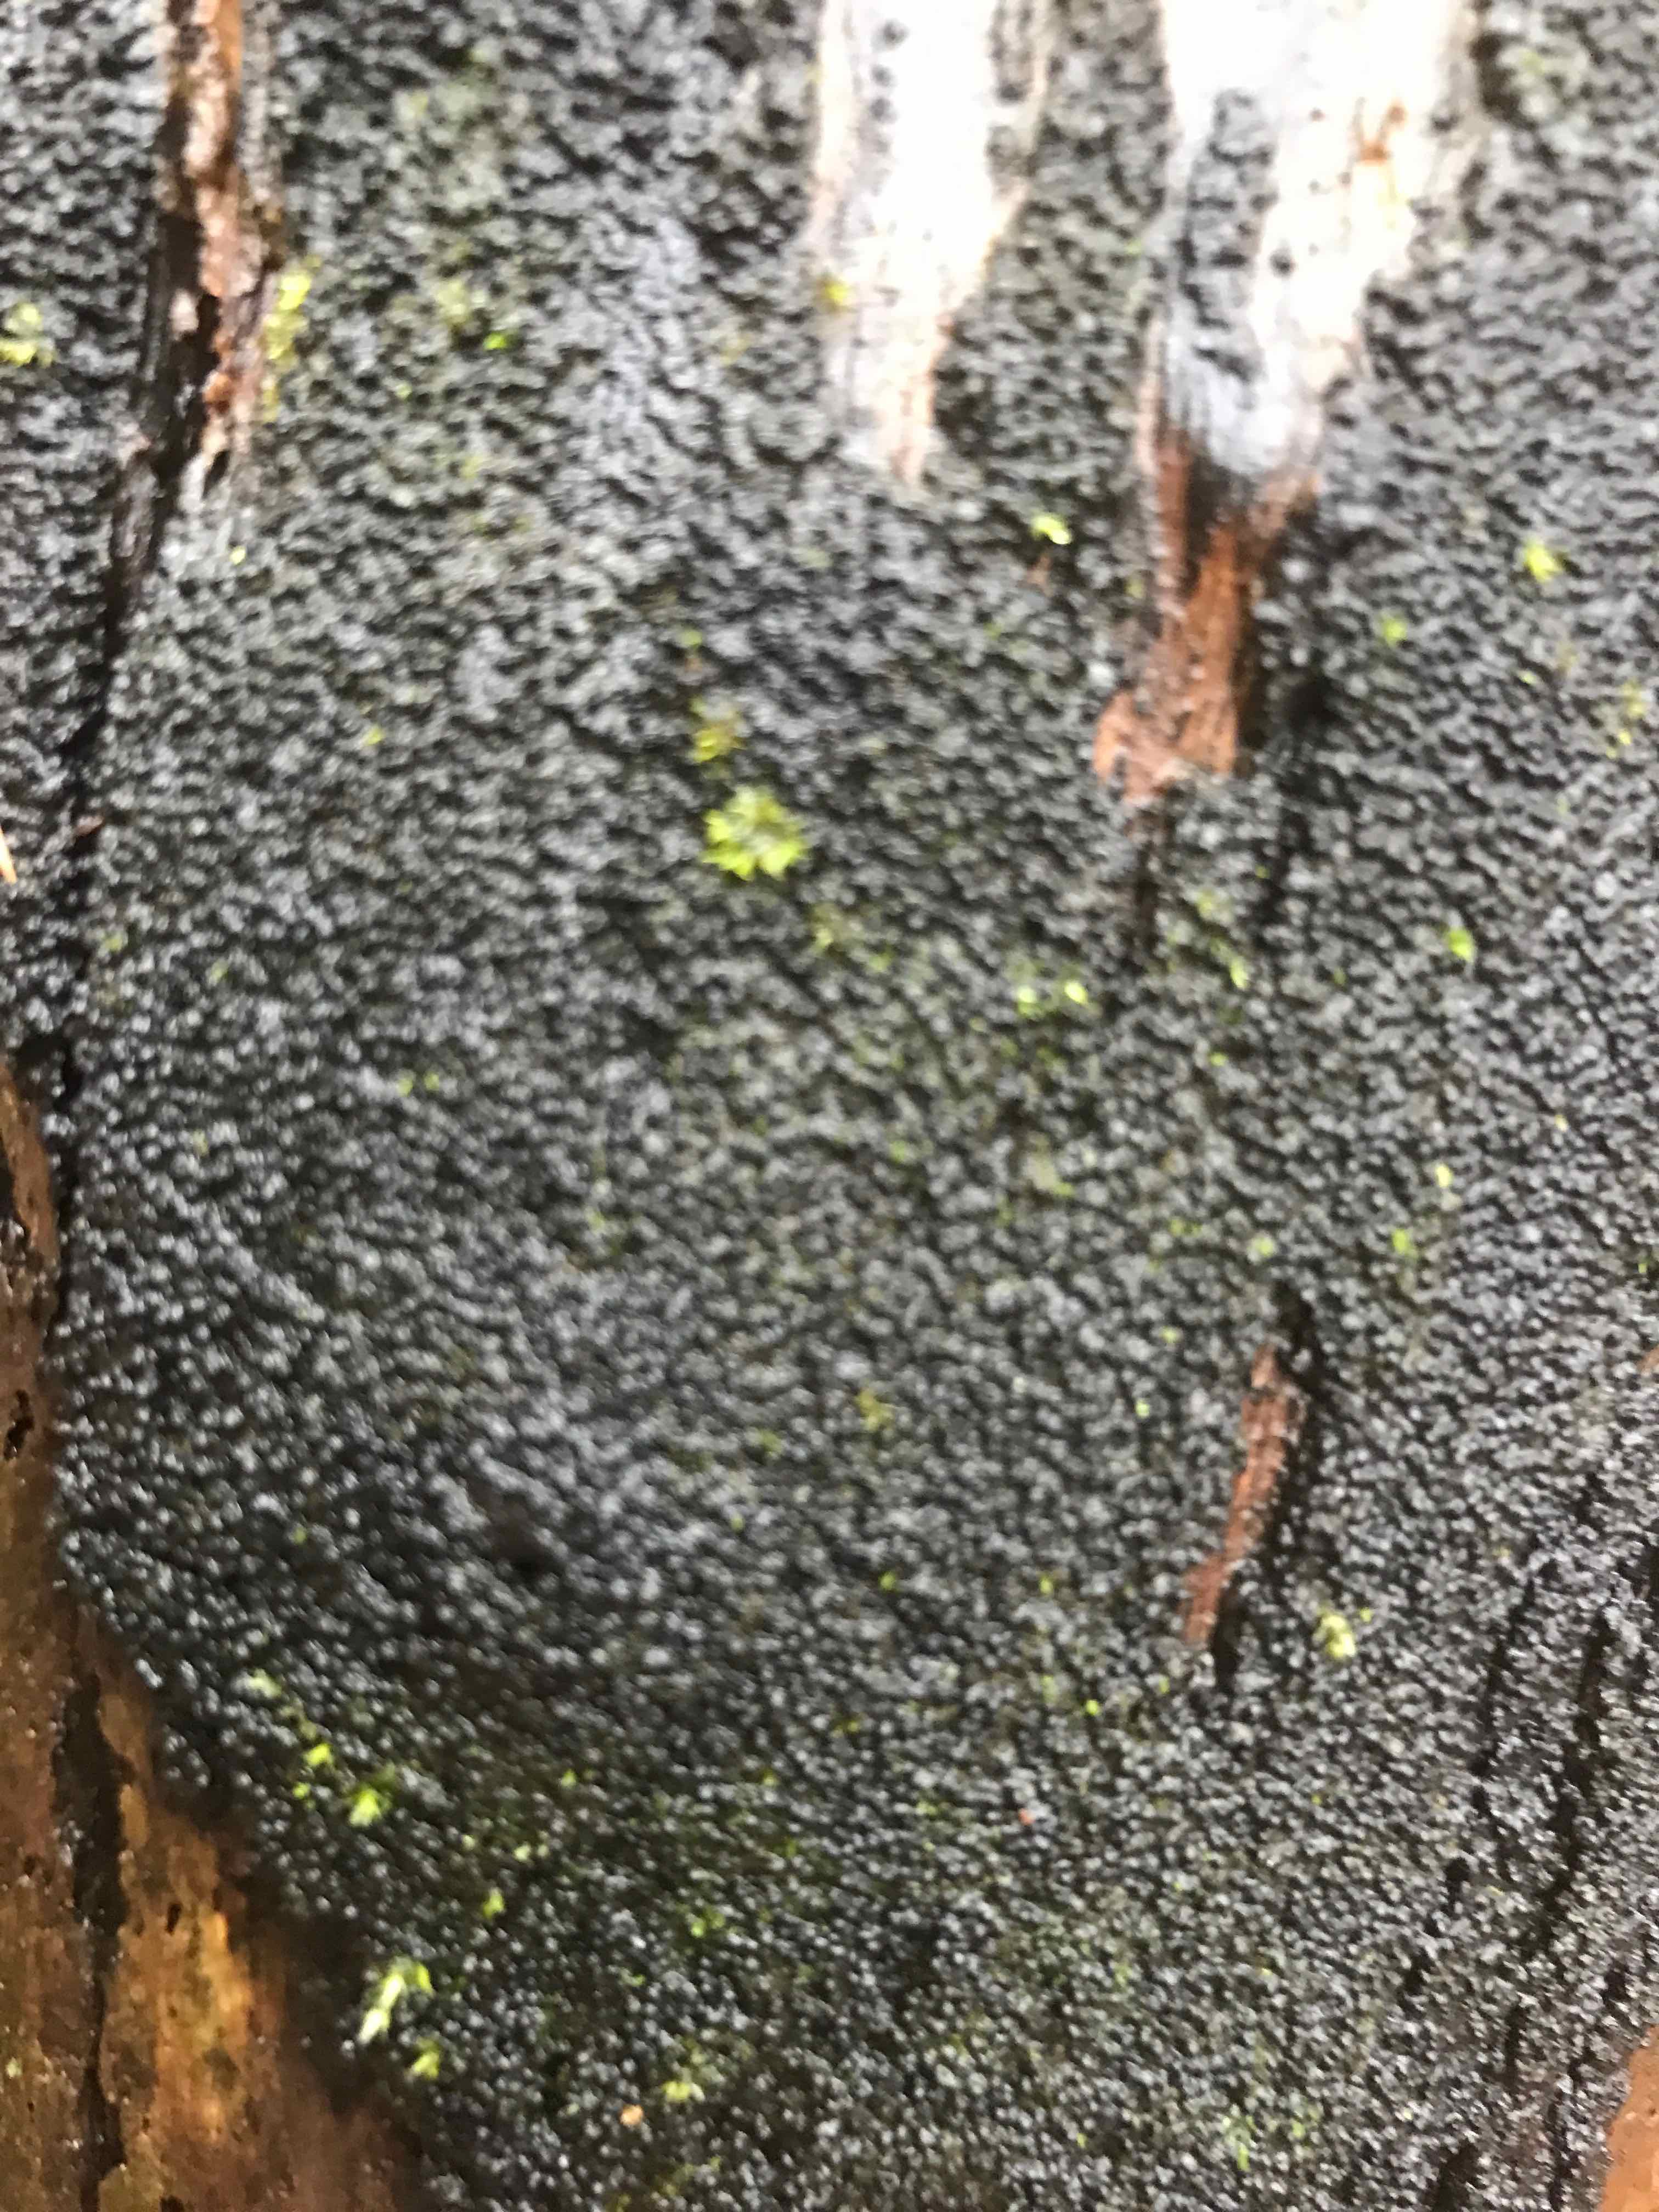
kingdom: Fungi
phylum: Ascomycota
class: Sordariomycetes
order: Xylariales
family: Diatrypaceae
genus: Eutypa
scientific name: Eutypa spinosa
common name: grov kulskorpe
